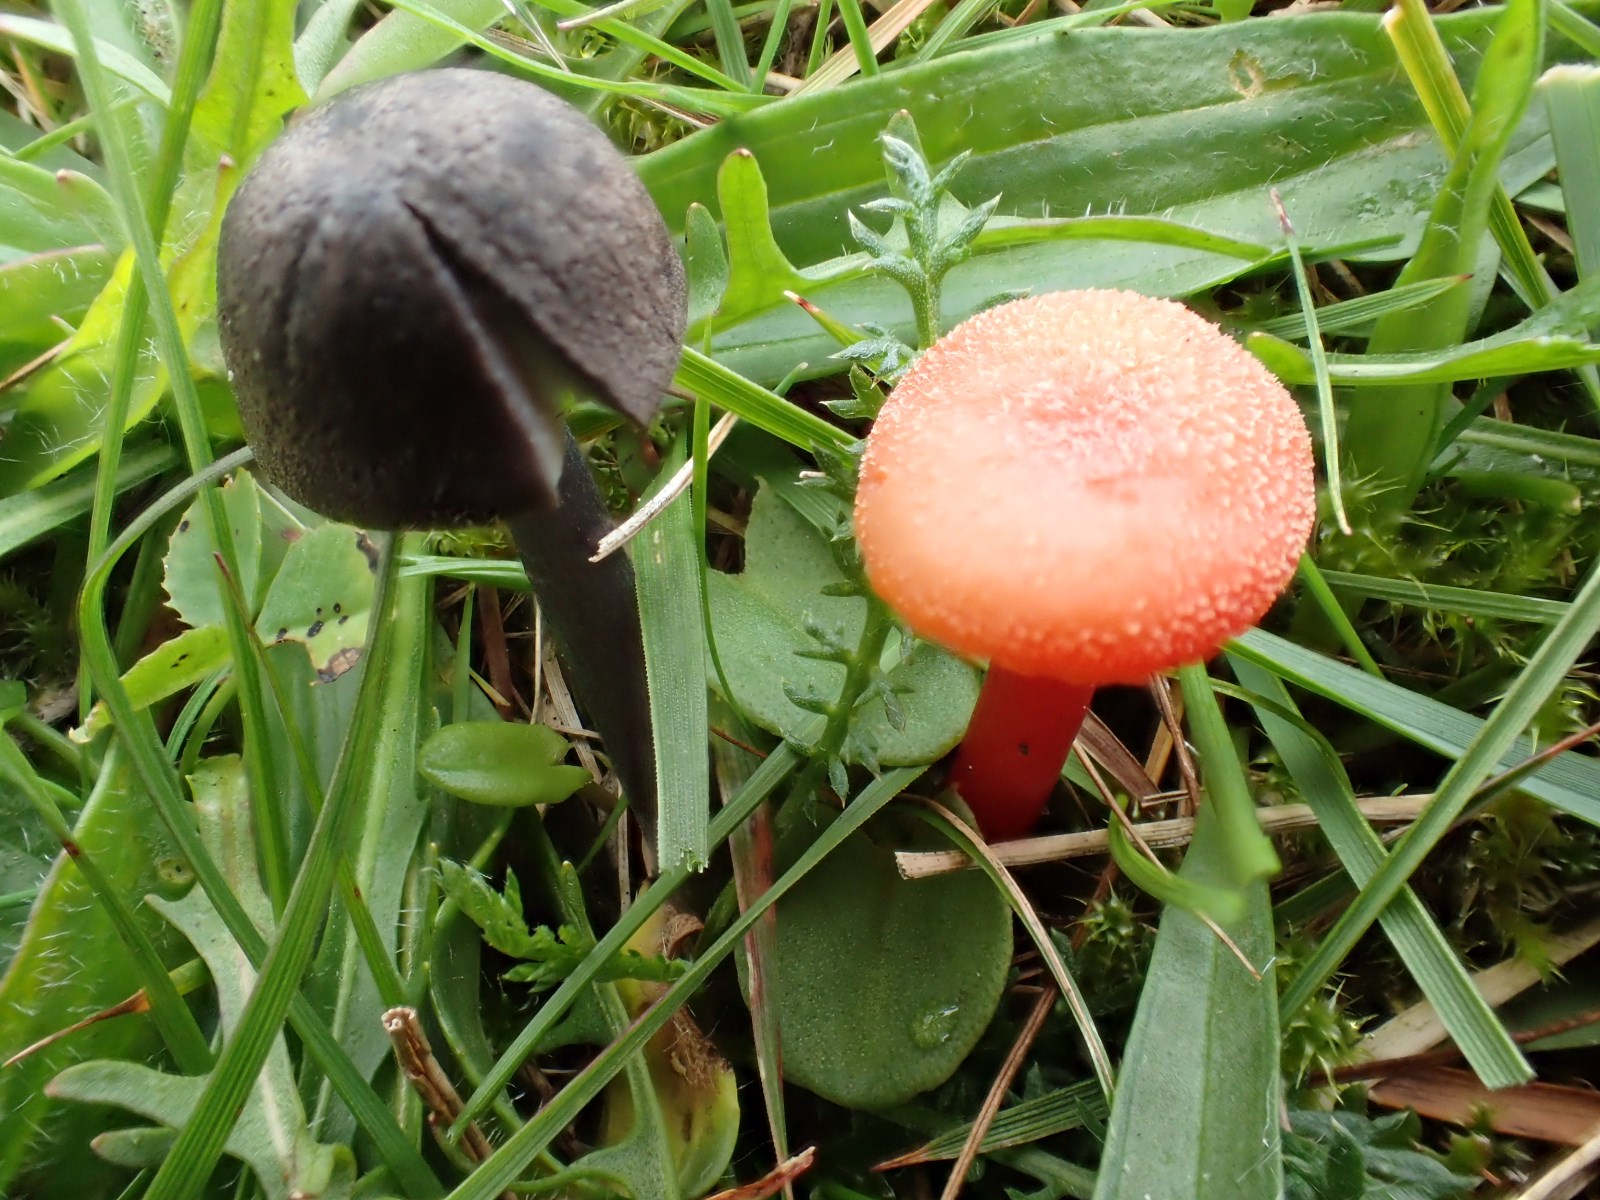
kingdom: Fungi
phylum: Basidiomycota
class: Agaricomycetes
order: Agaricales
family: Hygrophoraceae
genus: Hygrocybe
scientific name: Hygrocybe cantharellus
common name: kantarel-vokshat
